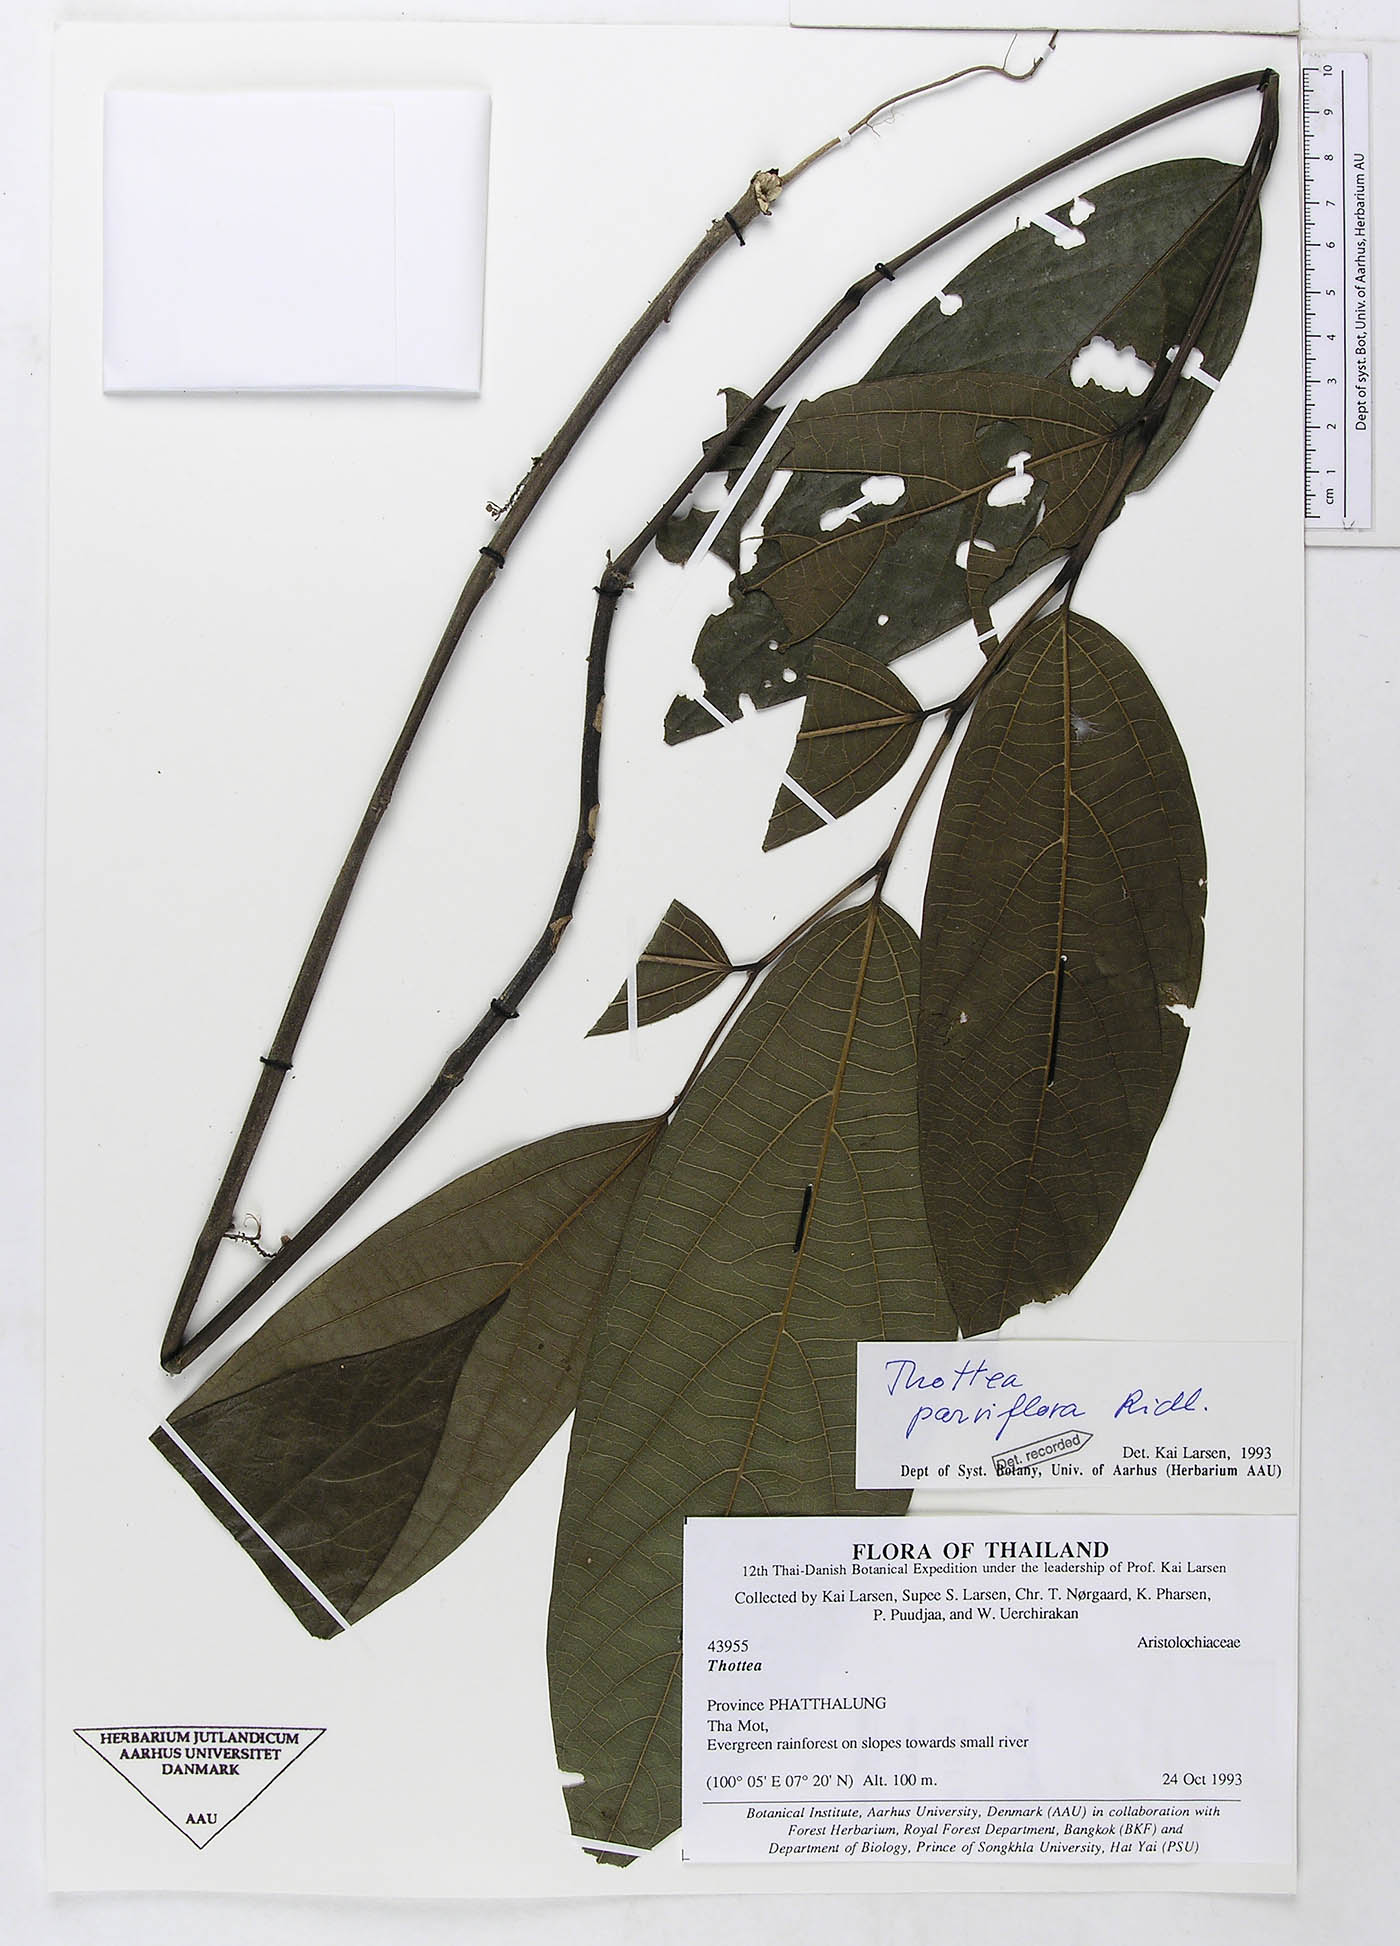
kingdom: Plantae
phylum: Tracheophyta
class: Magnoliopsida
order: Piperales
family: Aristolochiaceae
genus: Thottea
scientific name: Thottea parviflora
